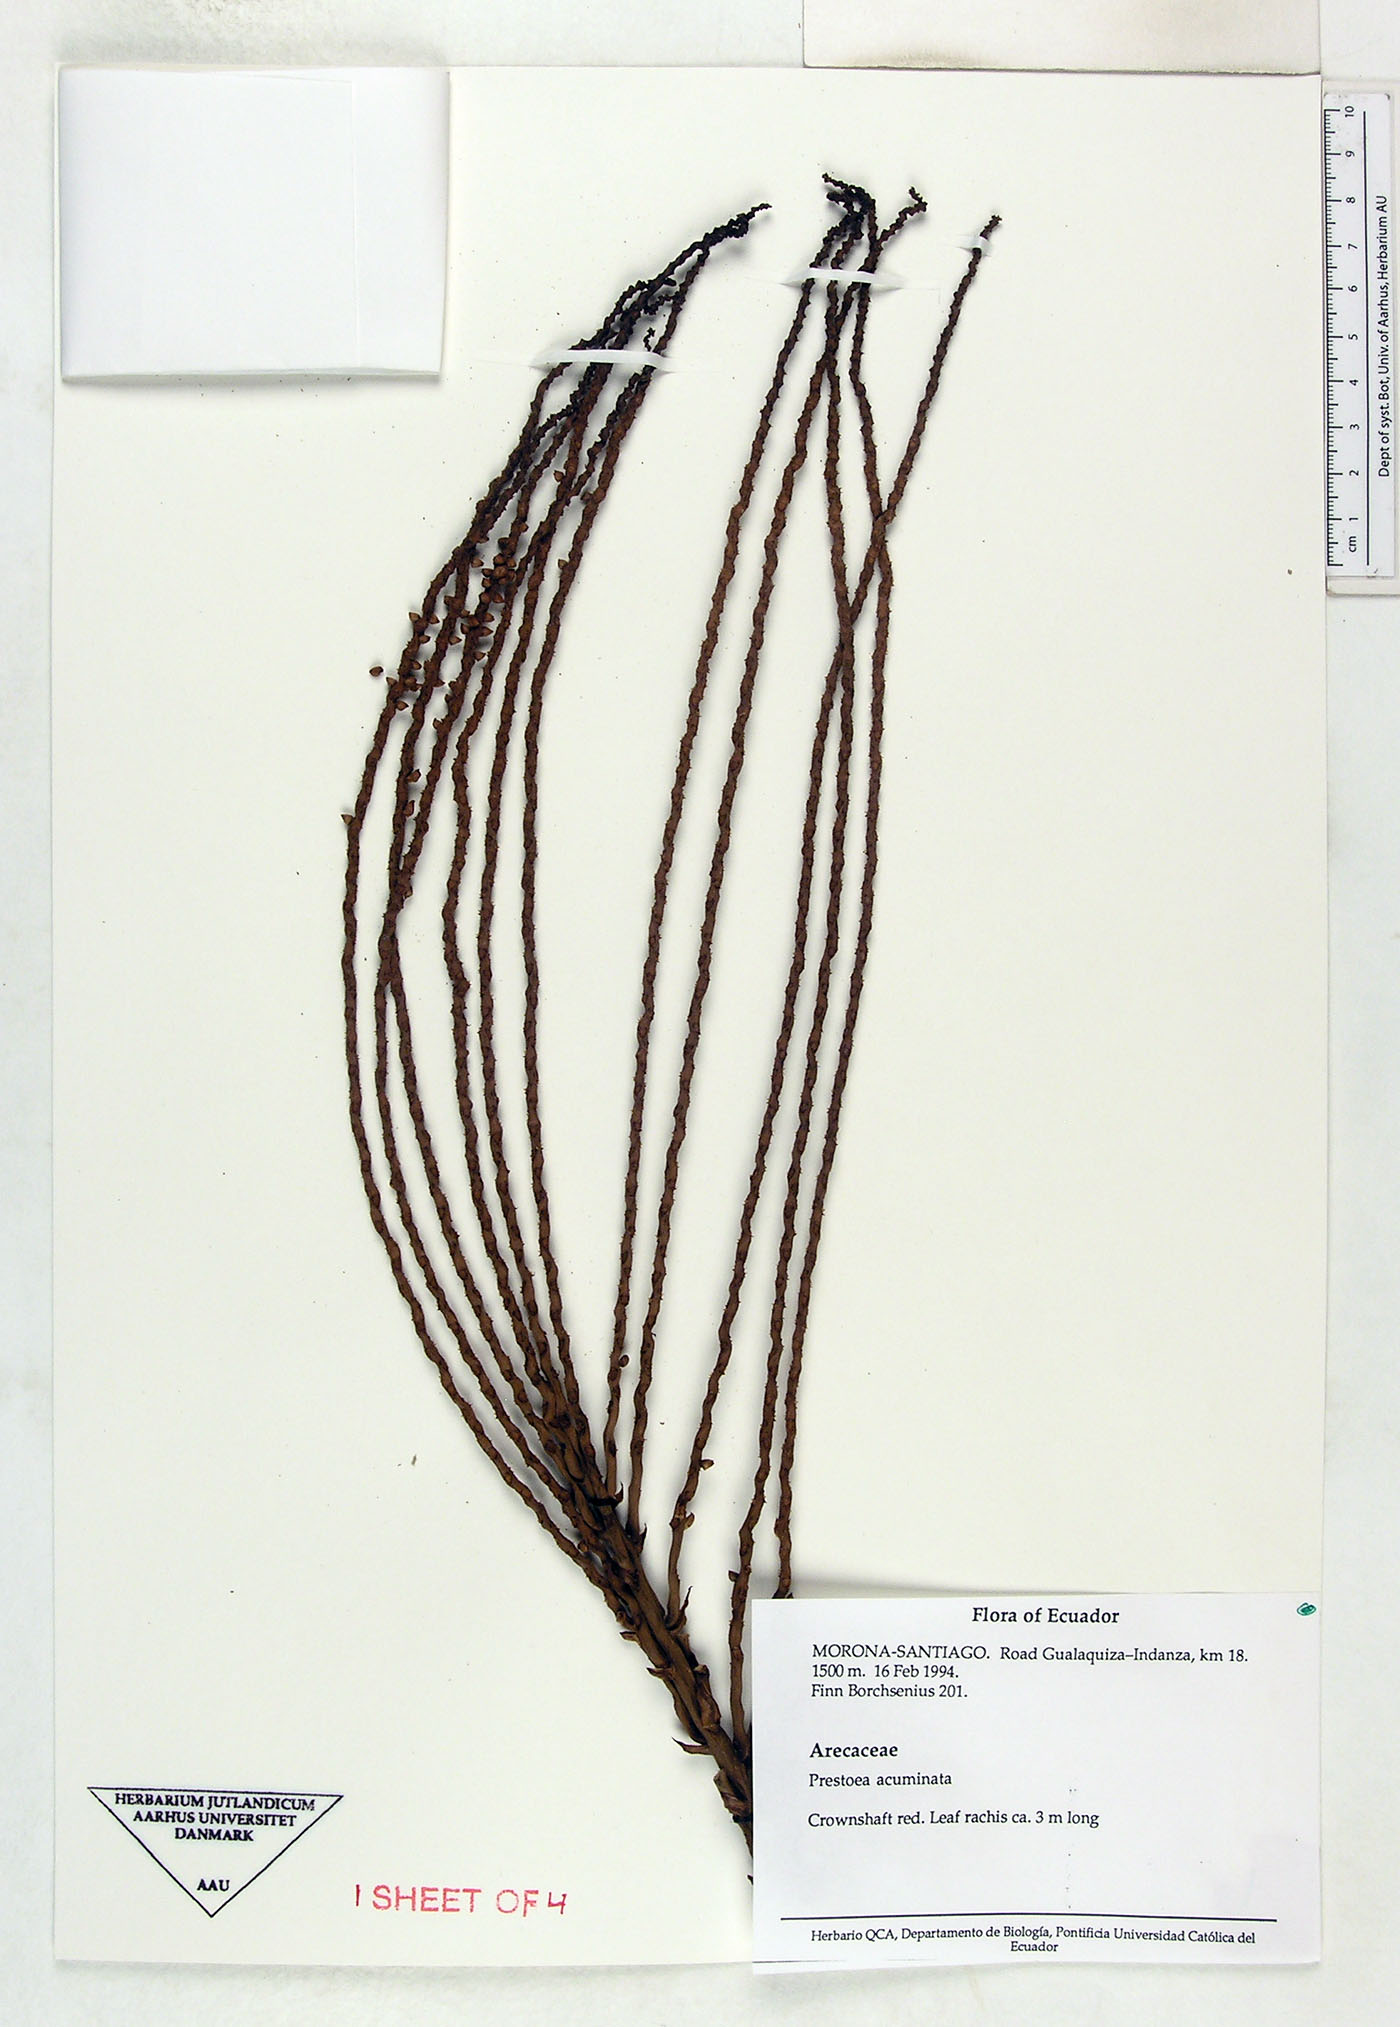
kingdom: Plantae
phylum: Tracheophyta
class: Liliopsida
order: Arecales
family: Arecaceae
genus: Prestoea
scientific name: Prestoea acuminata
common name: Sierran palm
